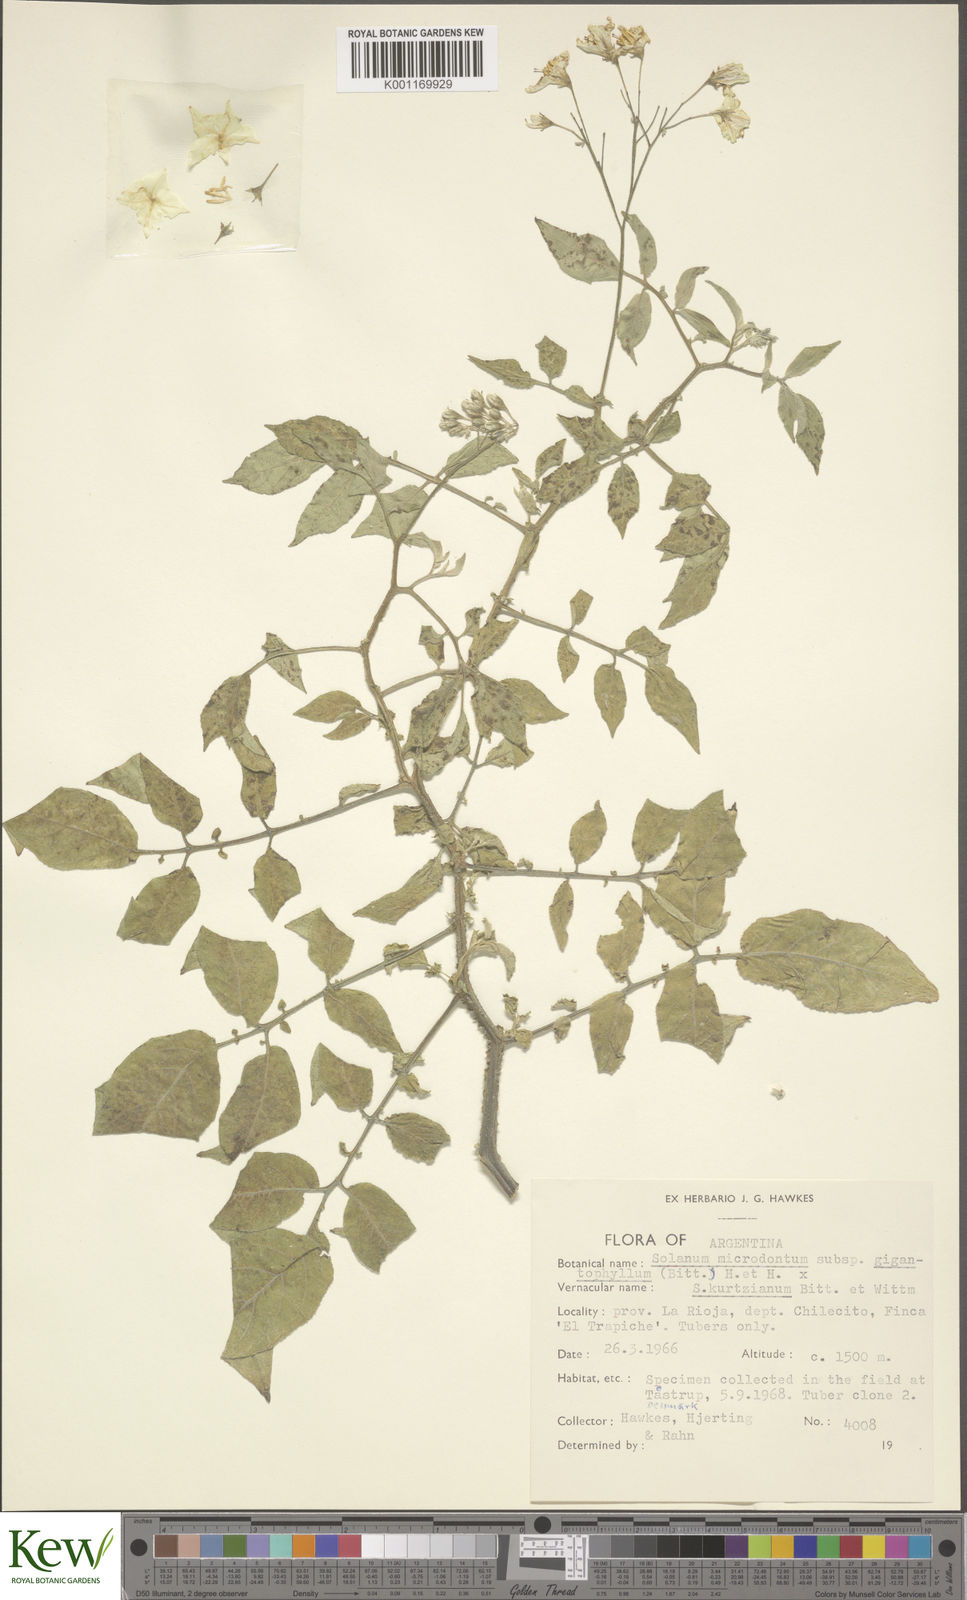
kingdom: Plantae
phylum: Tracheophyta
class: Magnoliopsida
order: Solanales
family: Solanaceae
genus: Solanum
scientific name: Solanum rechei
